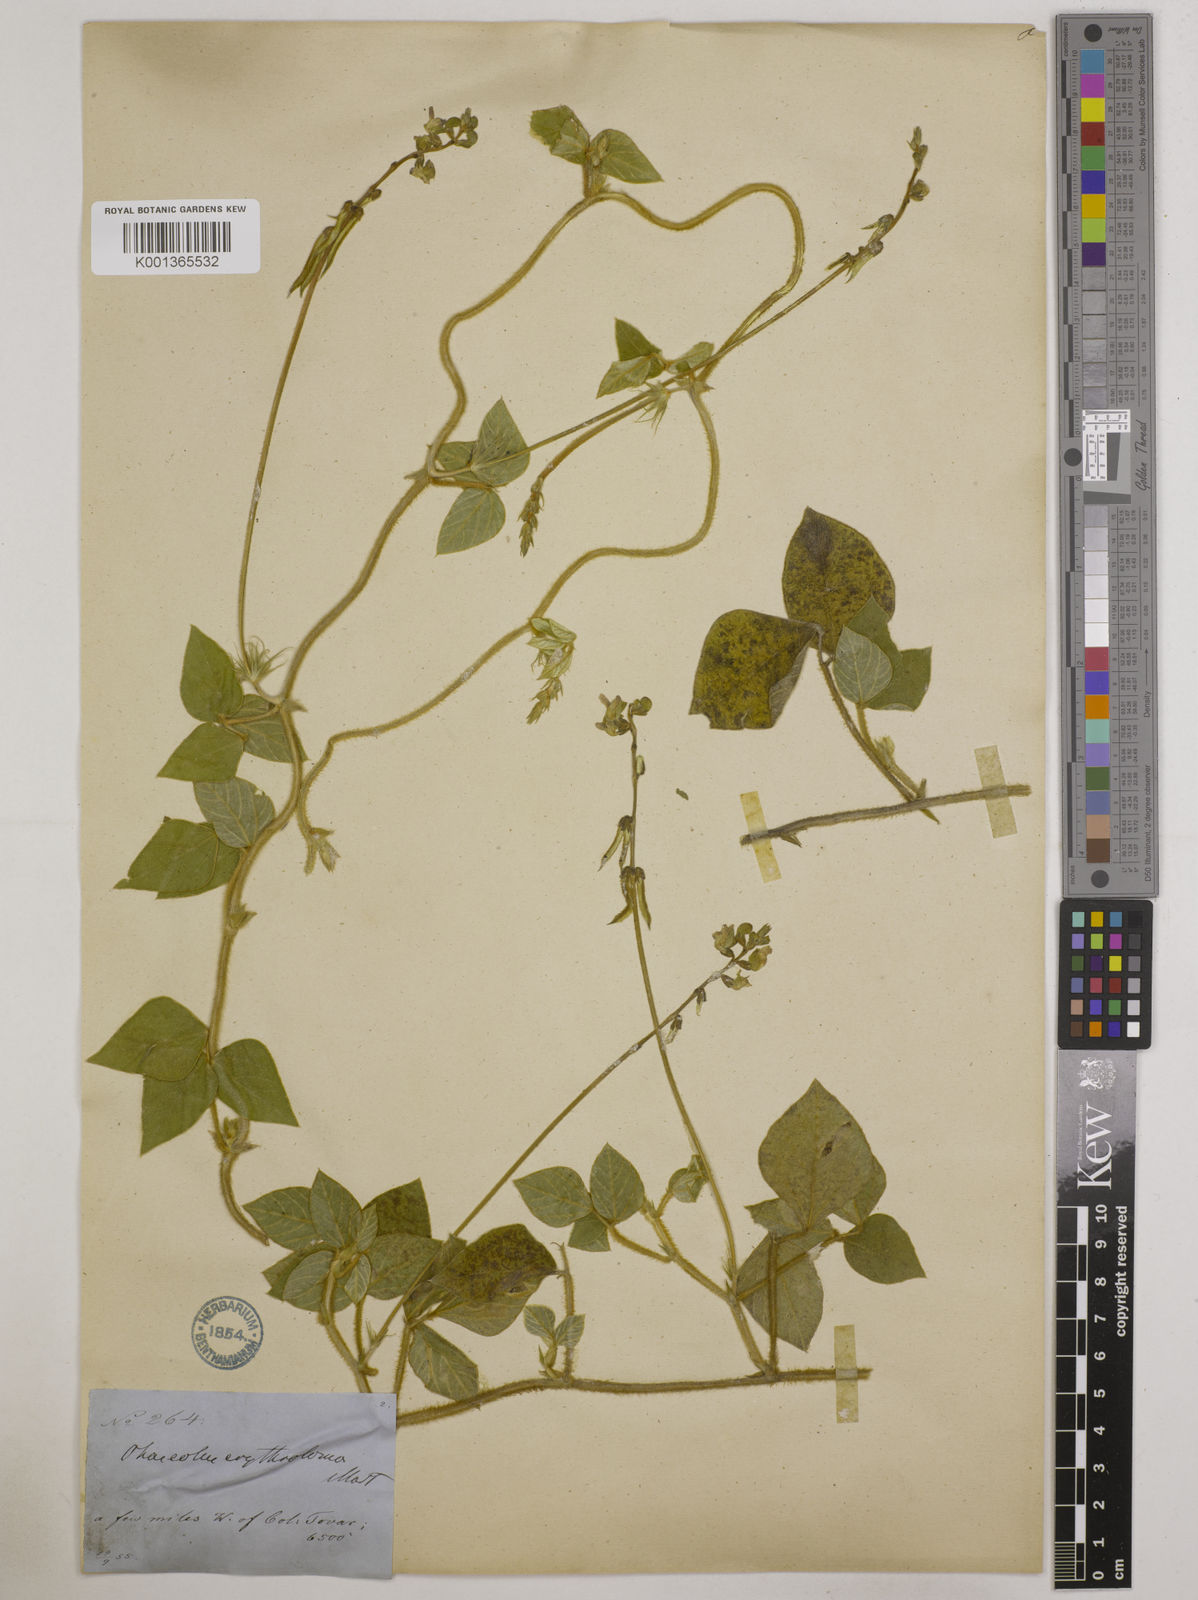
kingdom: Plantae
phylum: Tracheophyta
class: Magnoliopsida
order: Fabales
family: Fabaceae
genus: Macroptilium
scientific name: Macroptilium erythroloma
